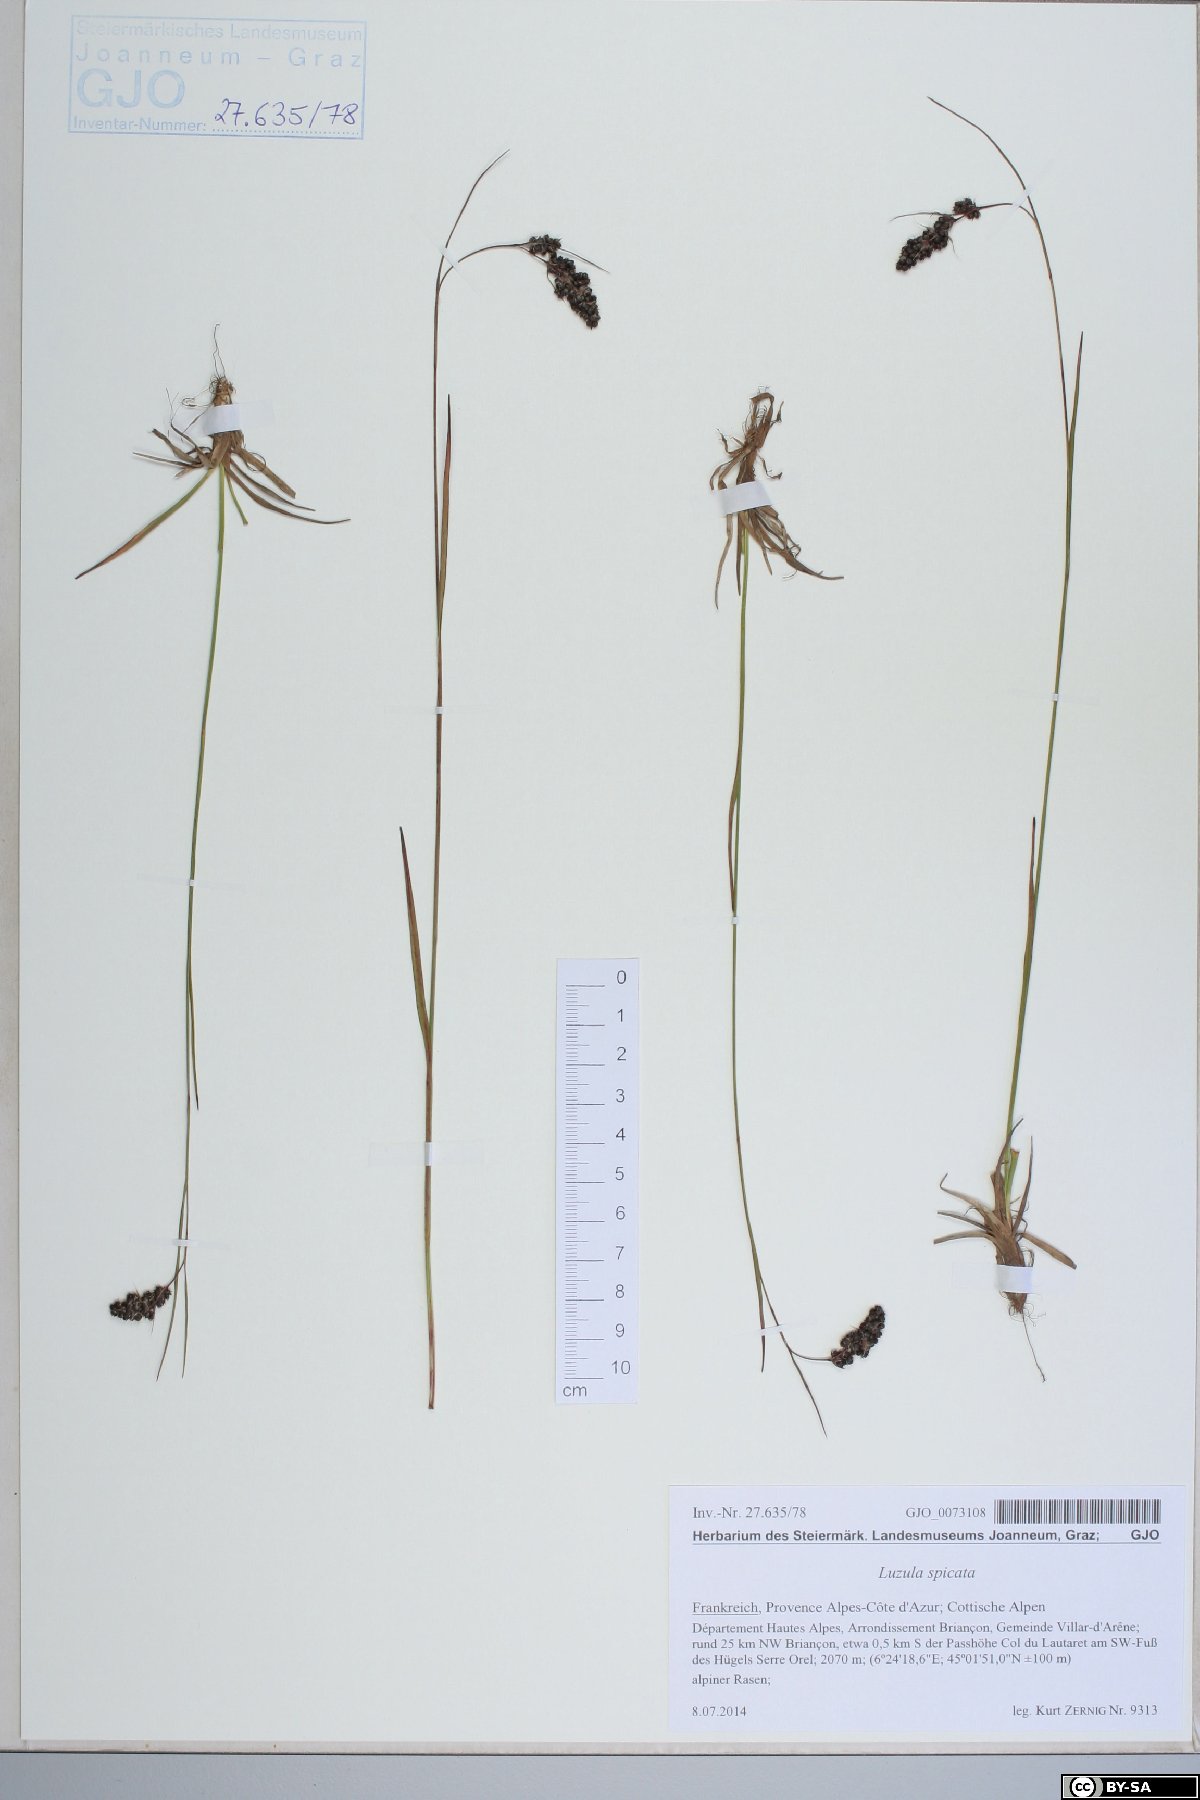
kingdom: Plantae
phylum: Tracheophyta
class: Liliopsida
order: Poales
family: Juncaceae
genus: Luzula
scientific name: Luzula spicata
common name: Spiked wood-rush
